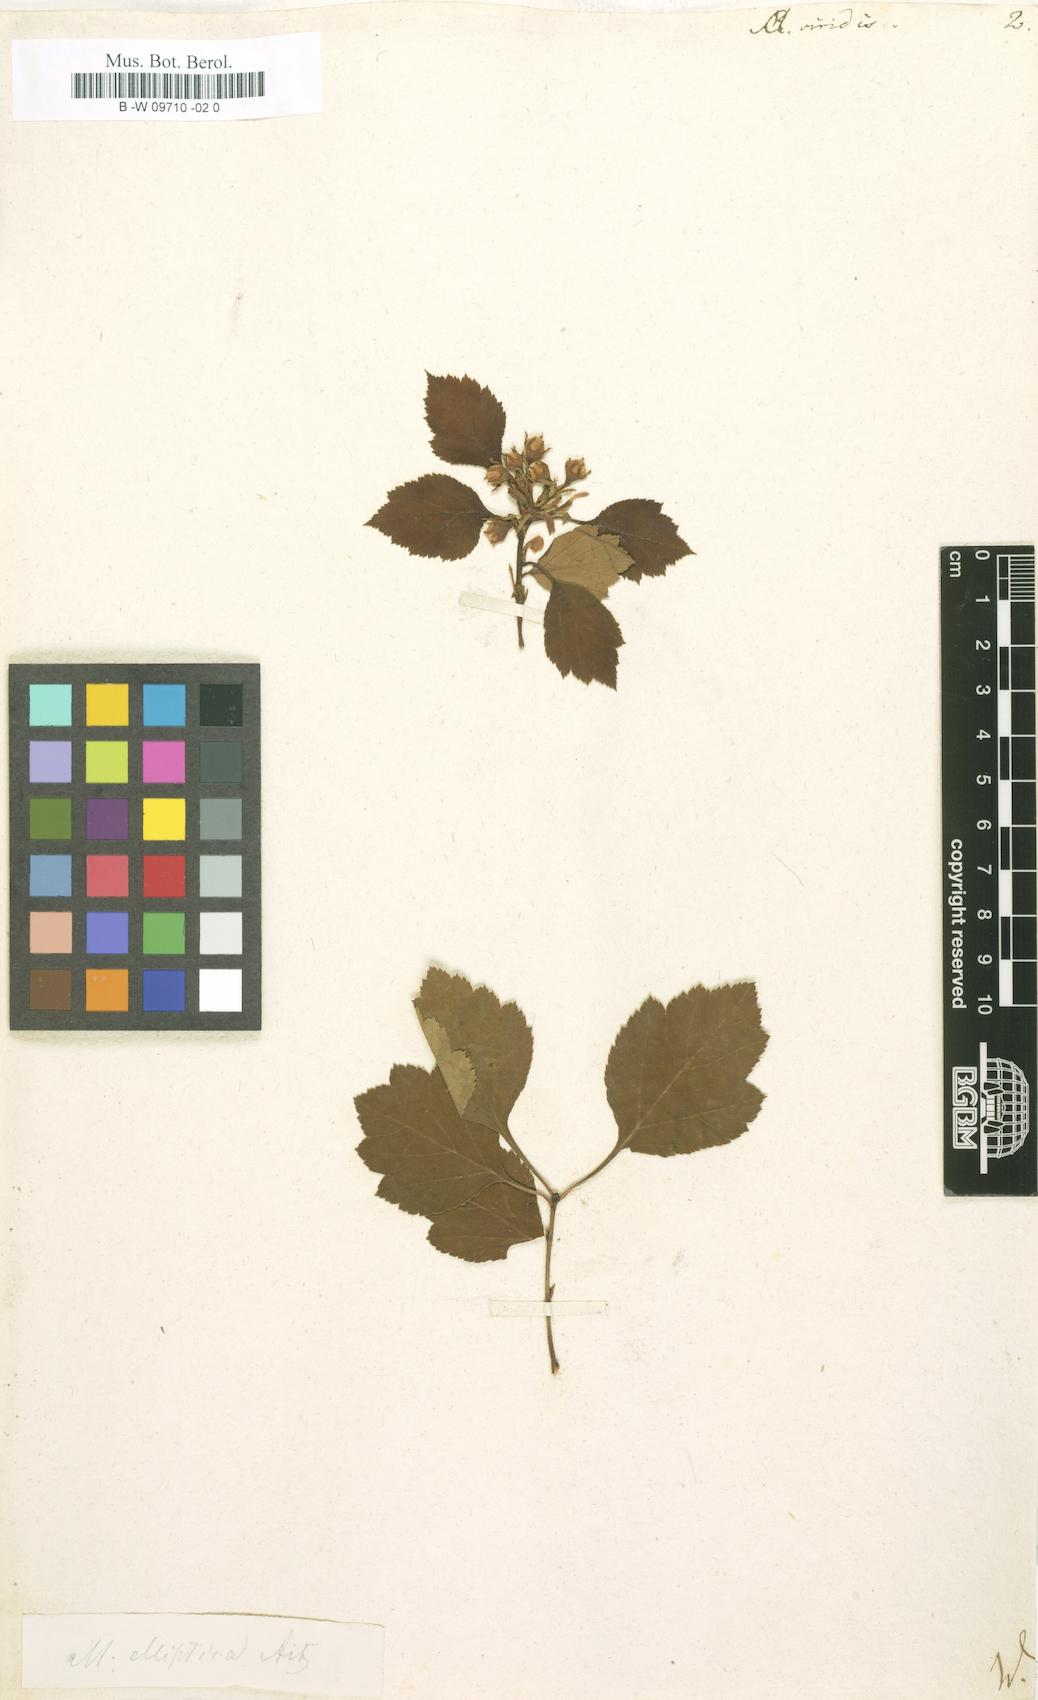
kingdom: Plantae
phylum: Tracheophyta
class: Magnoliopsida
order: Rosales
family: Rosaceae
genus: Crataegus
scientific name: Crataegus
